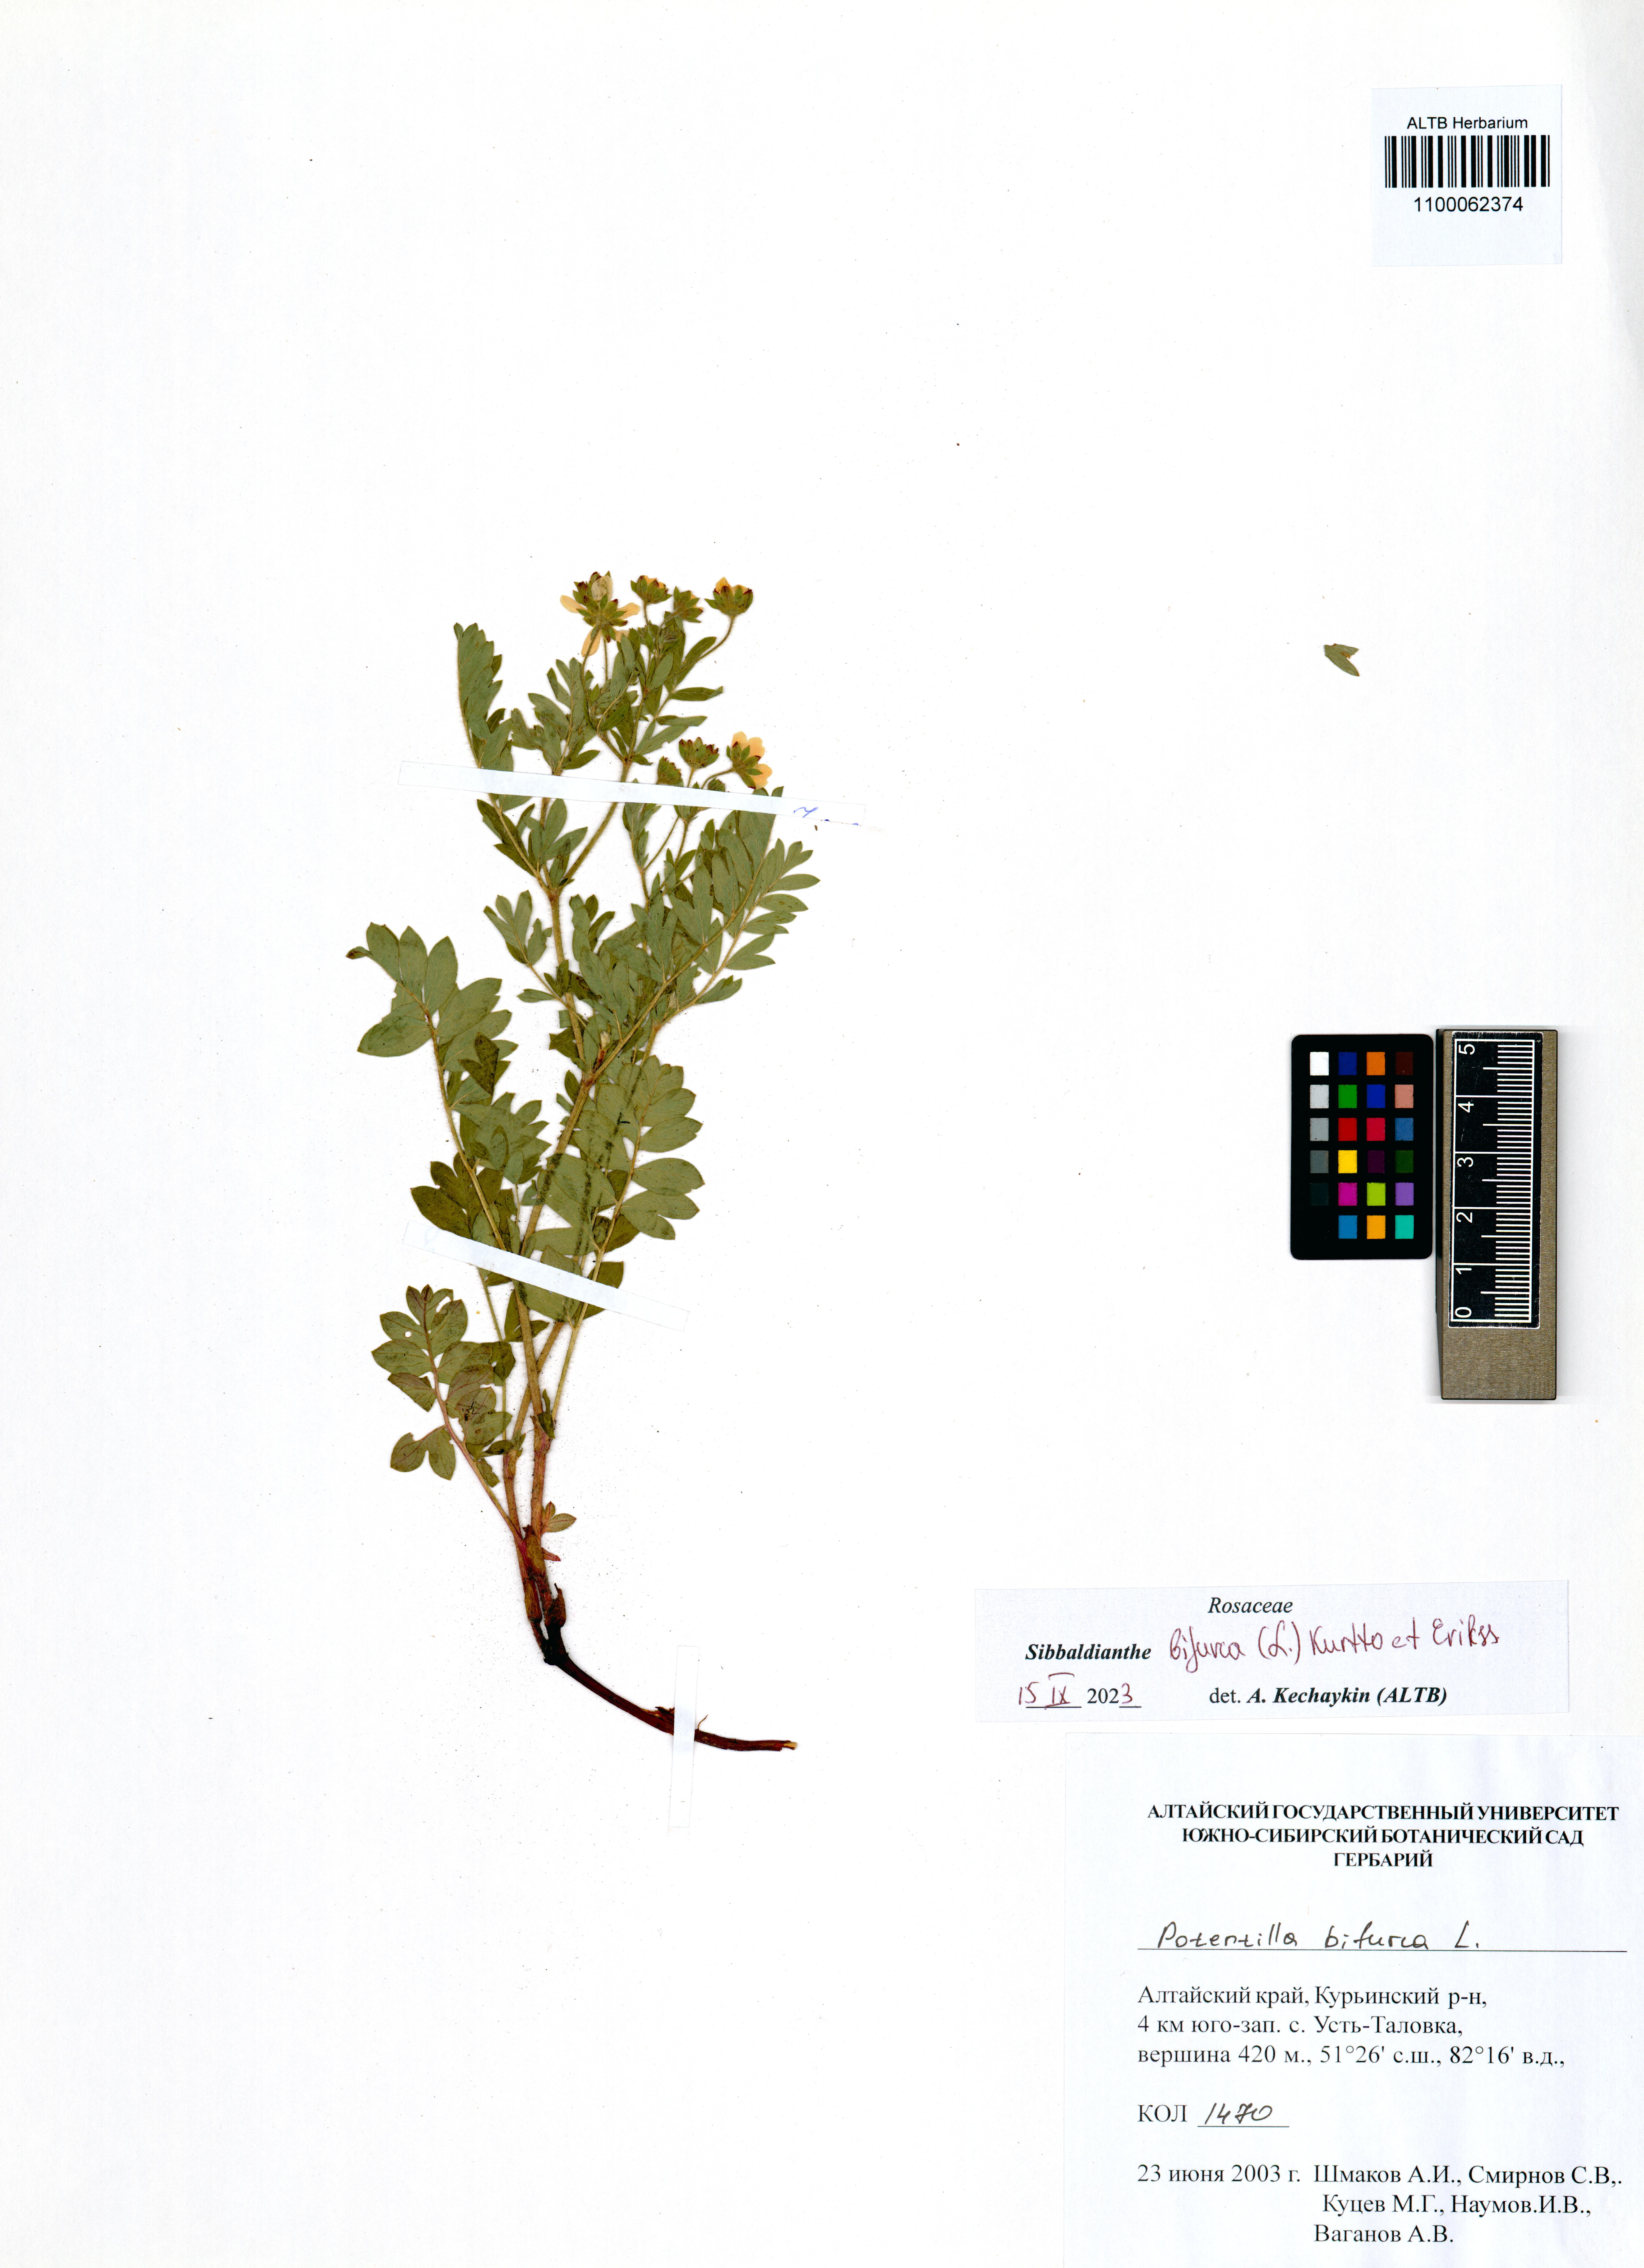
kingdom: Plantae
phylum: Tracheophyta
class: Magnoliopsida
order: Rosales
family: Rosaceae
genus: Sibbaldianthe
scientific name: Sibbaldianthe bifurca
